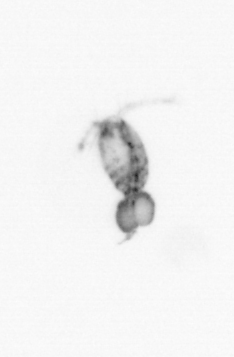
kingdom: Animalia
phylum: Arthropoda
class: Copepoda
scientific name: Copepoda
